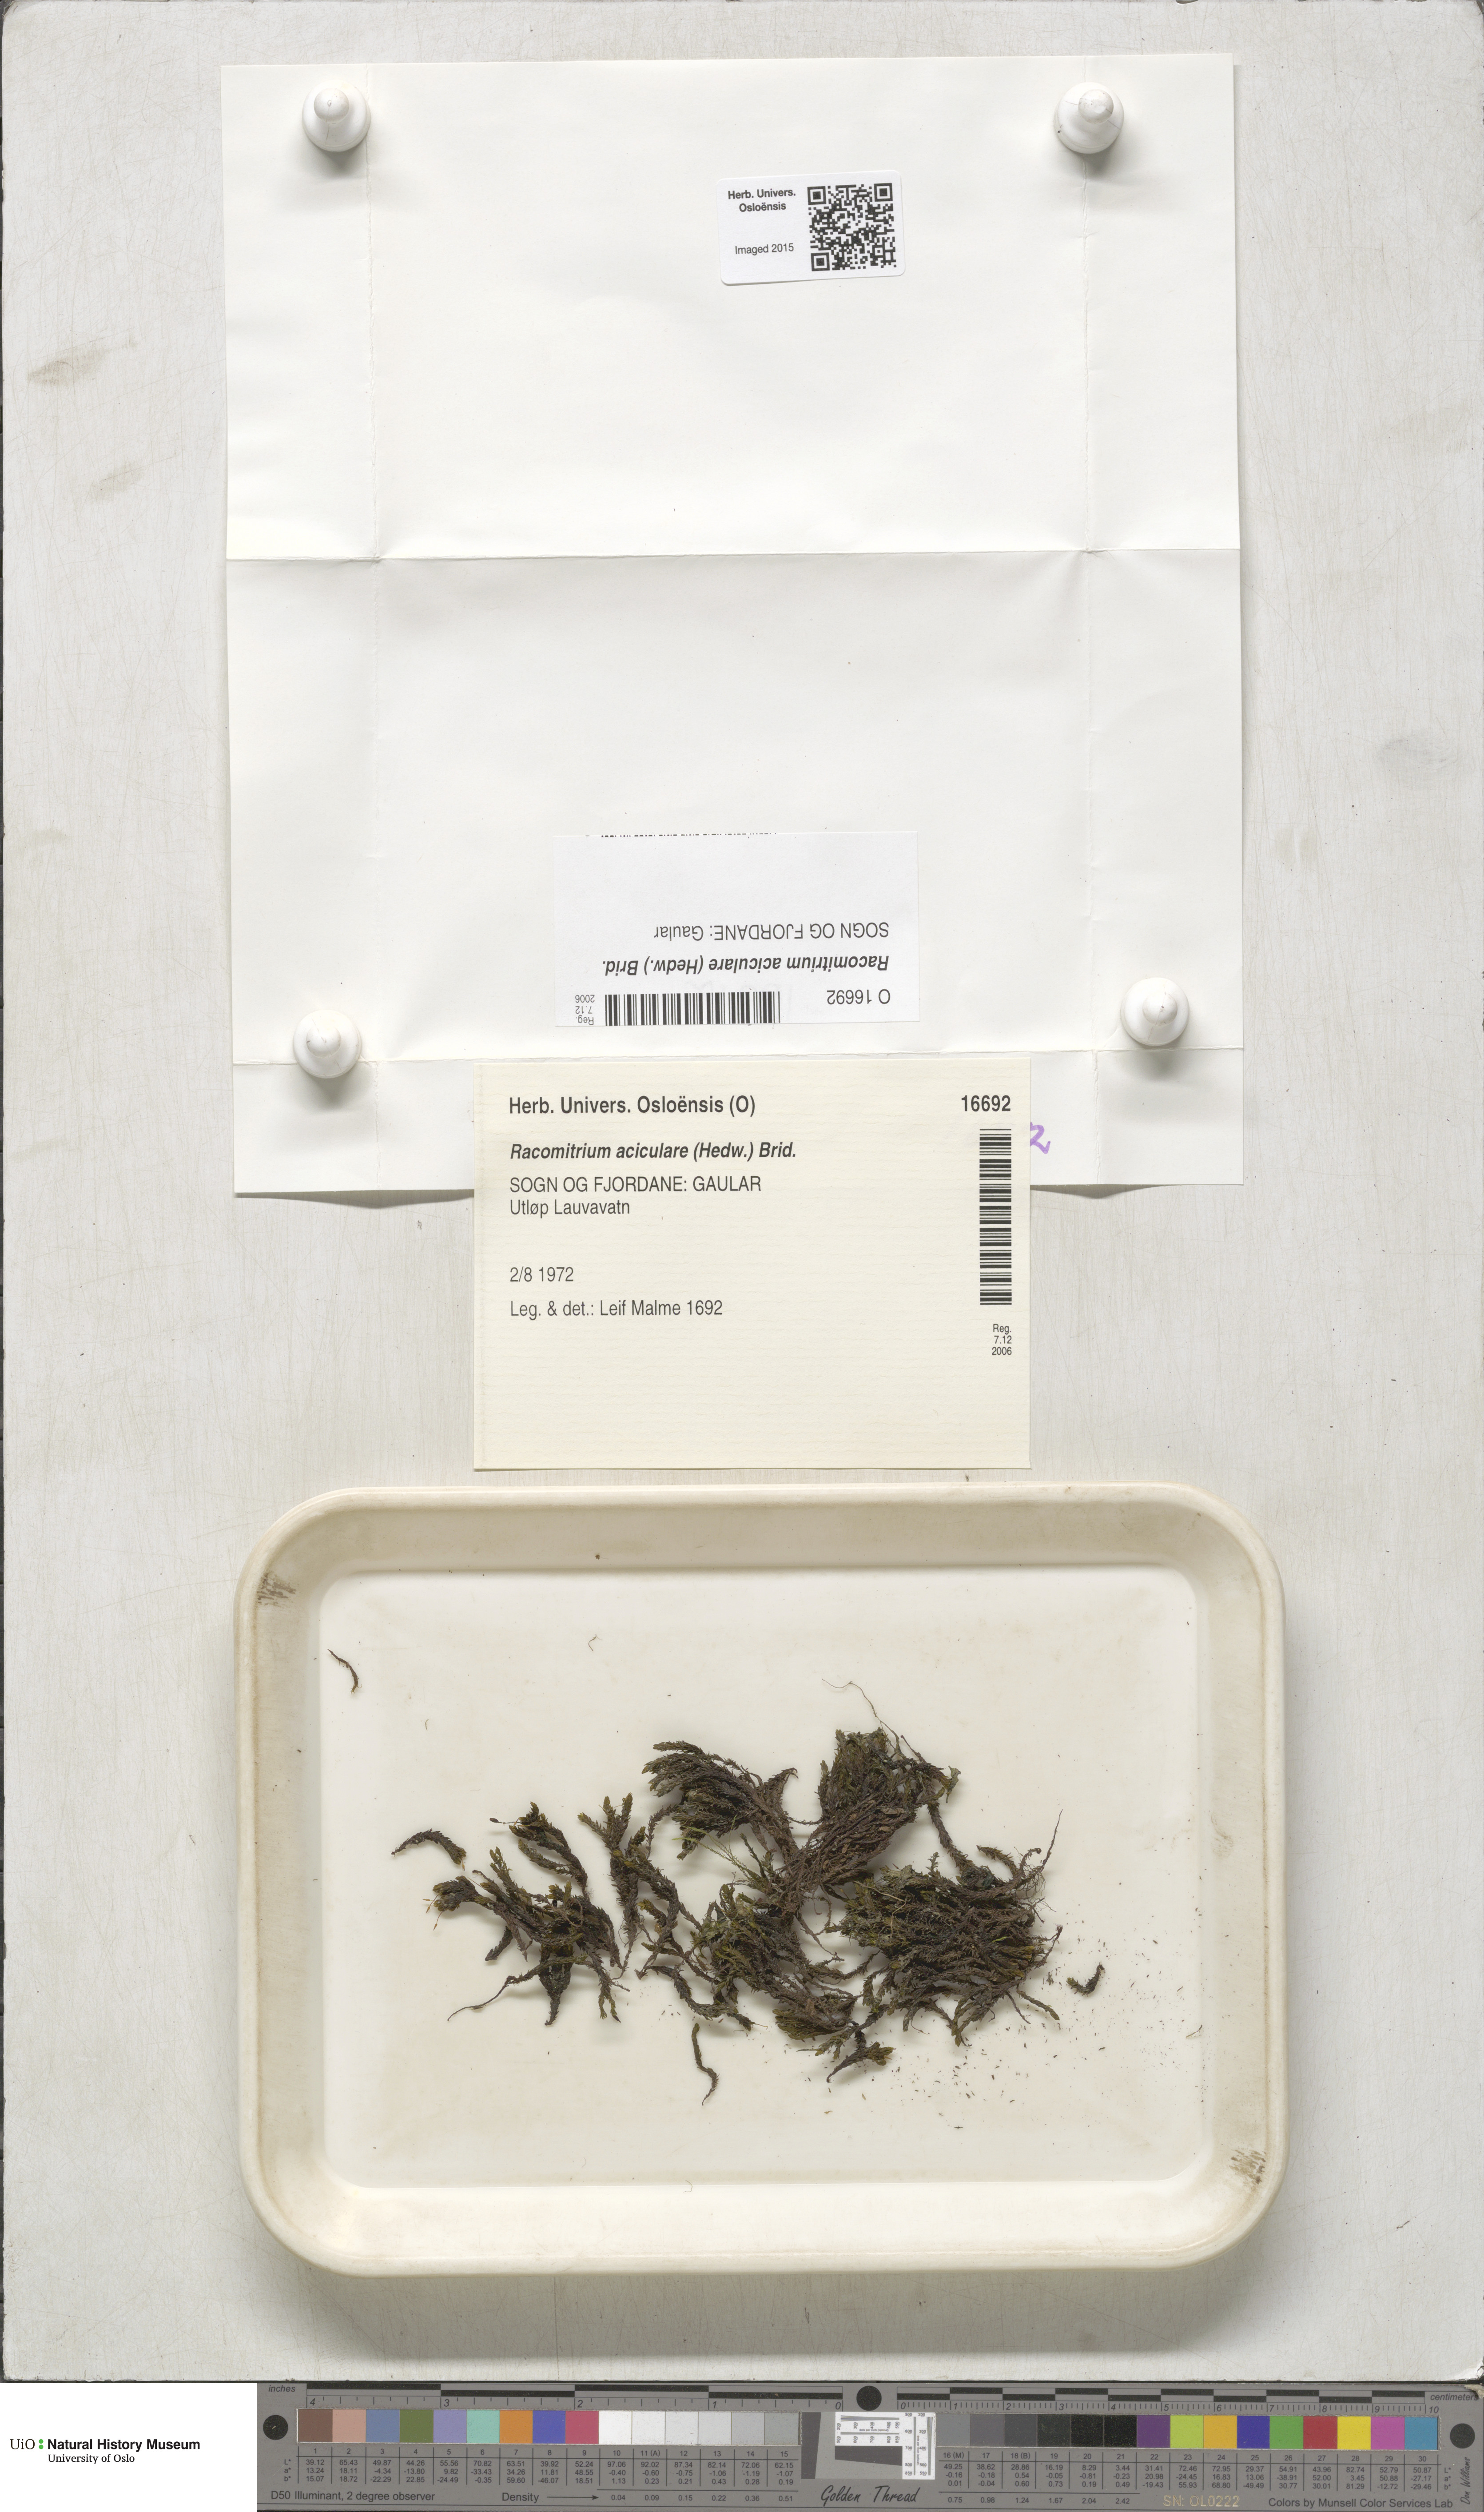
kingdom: Plantae
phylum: Bryophyta
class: Bryopsida
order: Grimmiales
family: Grimmiaceae
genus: Codriophorus
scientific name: Codriophorus acicularis
